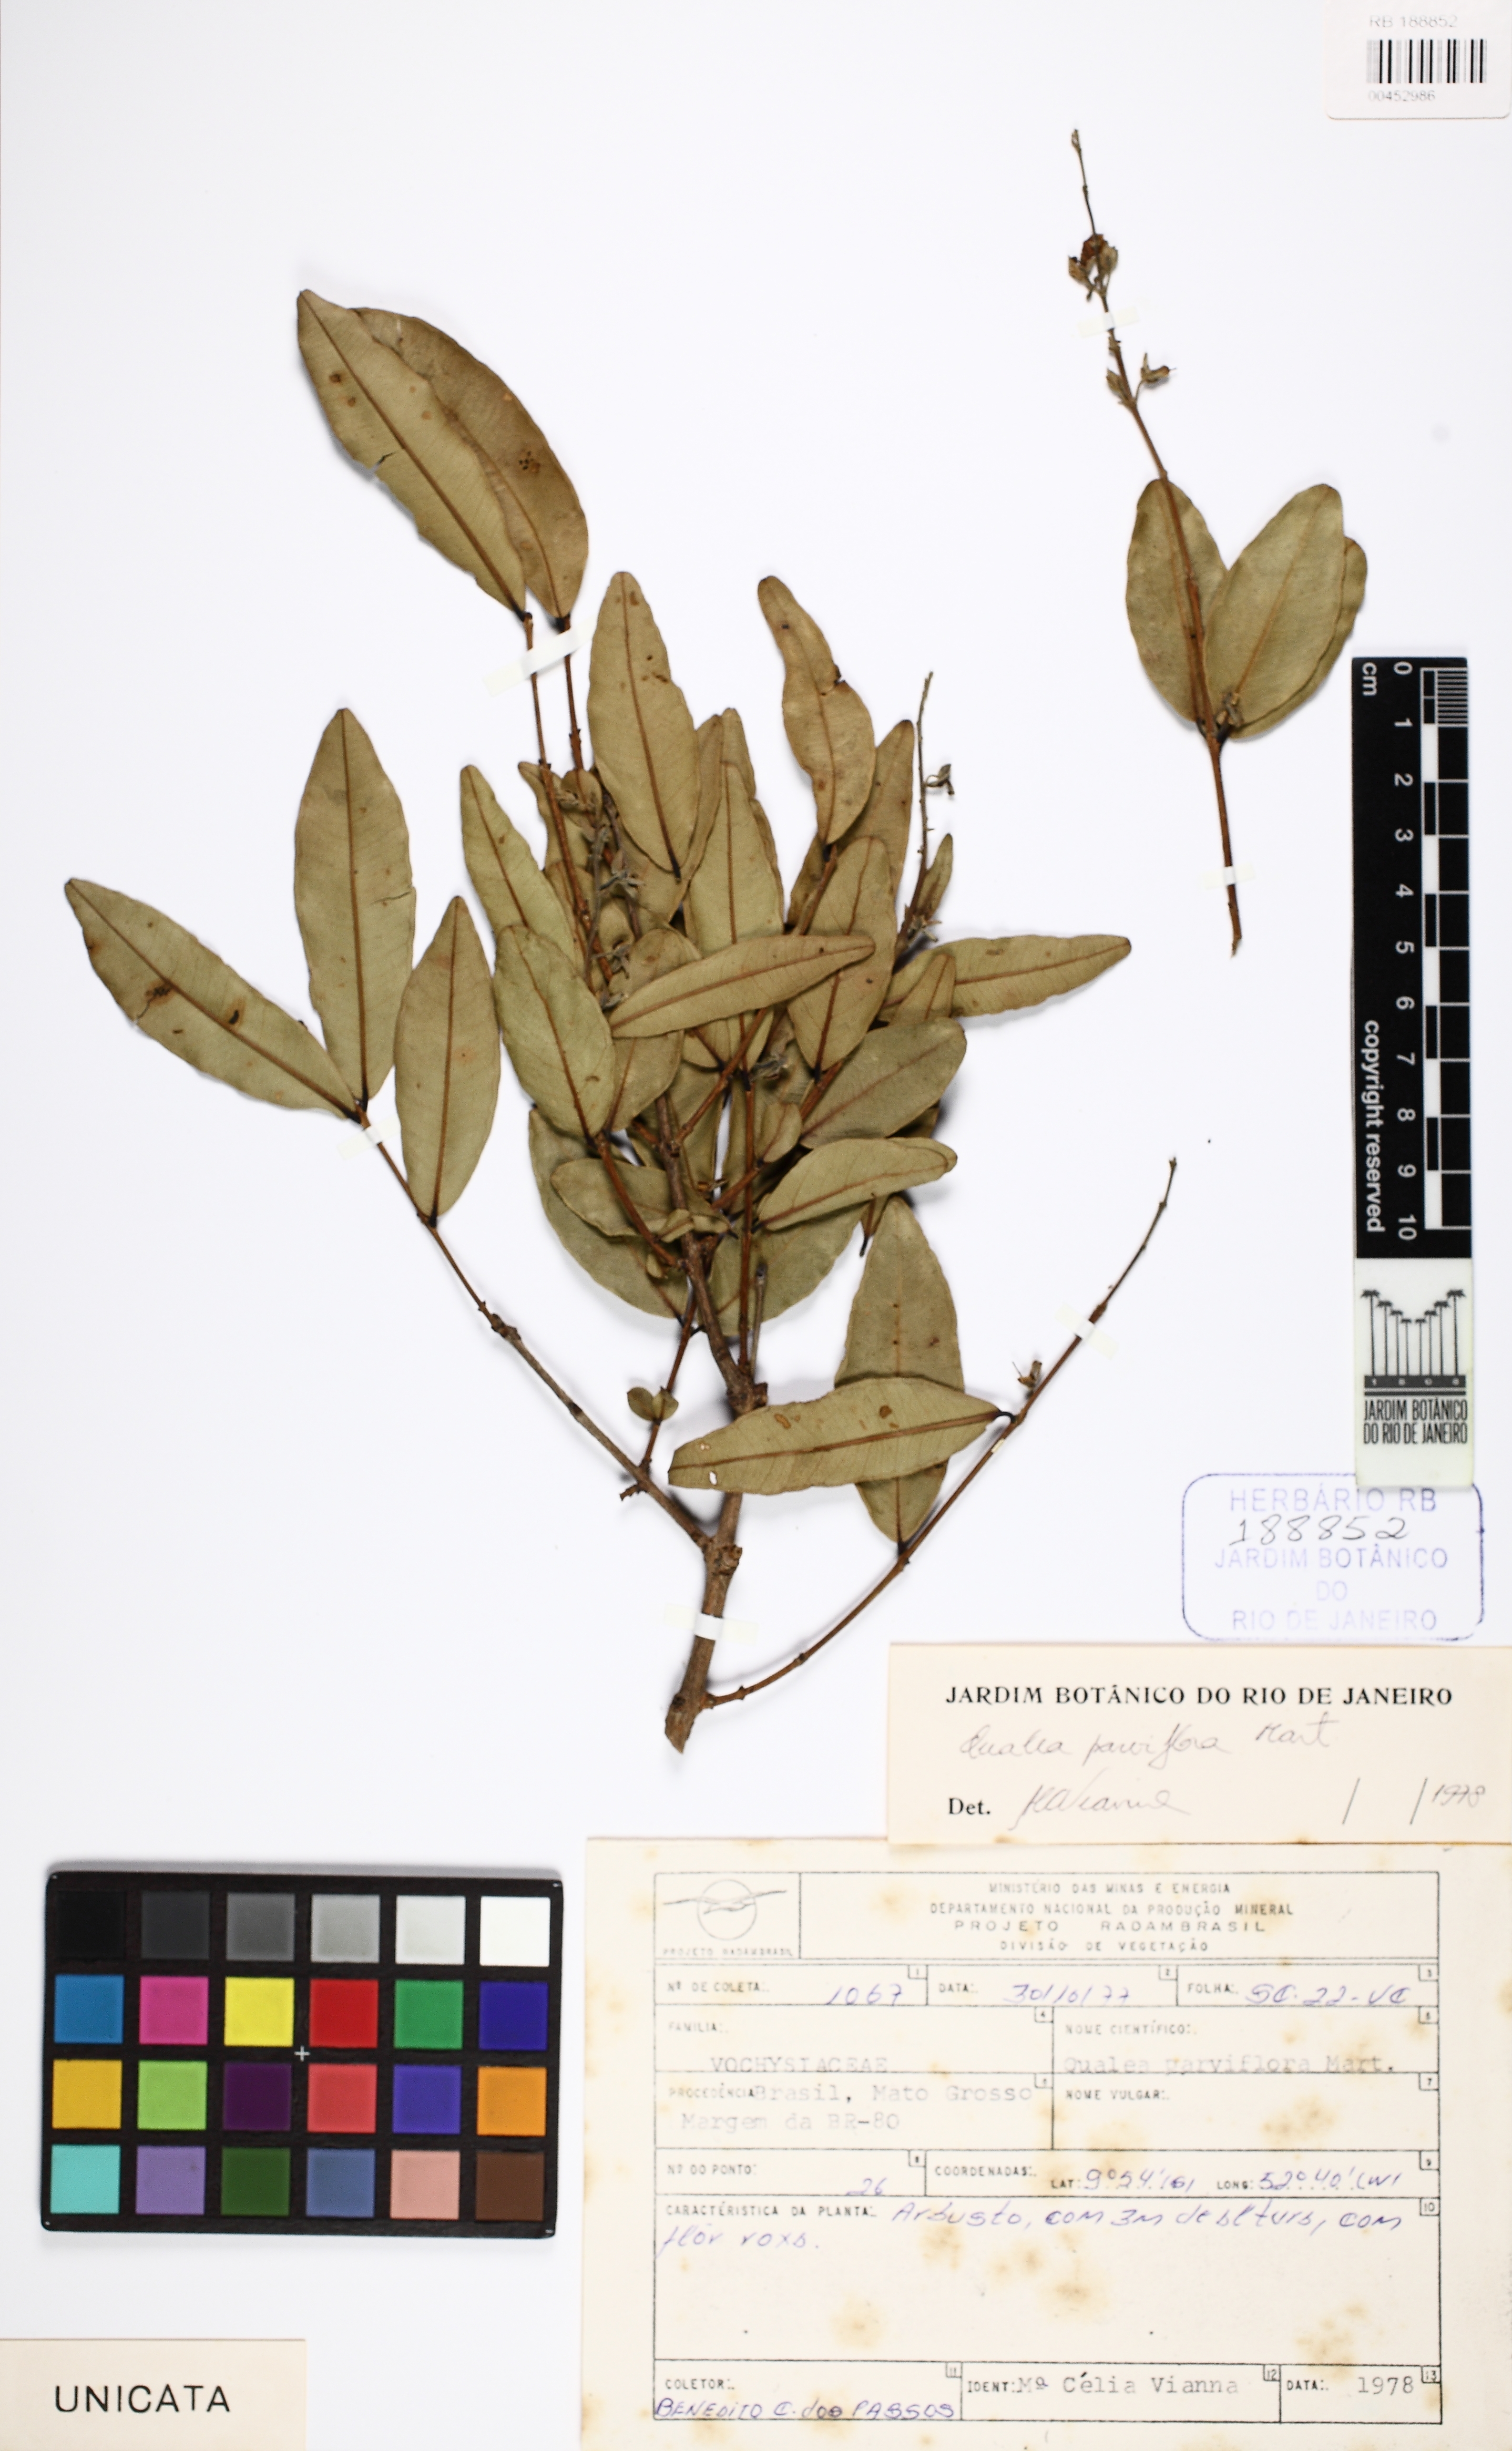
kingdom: Plantae
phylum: Tracheophyta
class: Magnoliopsida
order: Myrtales
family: Vochysiaceae
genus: Qualea
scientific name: Qualea parviflora
